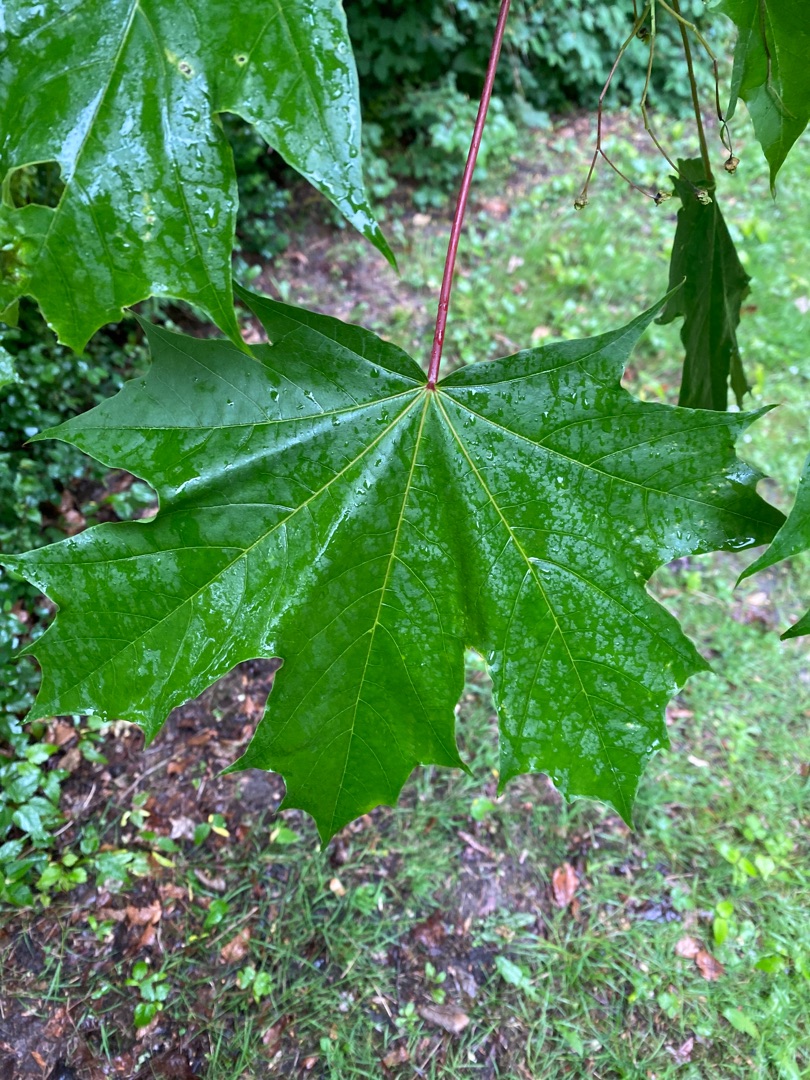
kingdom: Plantae
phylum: Tracheophyta
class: Magnoliopsida
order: Sapindales
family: Sapindaceae
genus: Acer
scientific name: Acer platanoides
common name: Spids-løn
